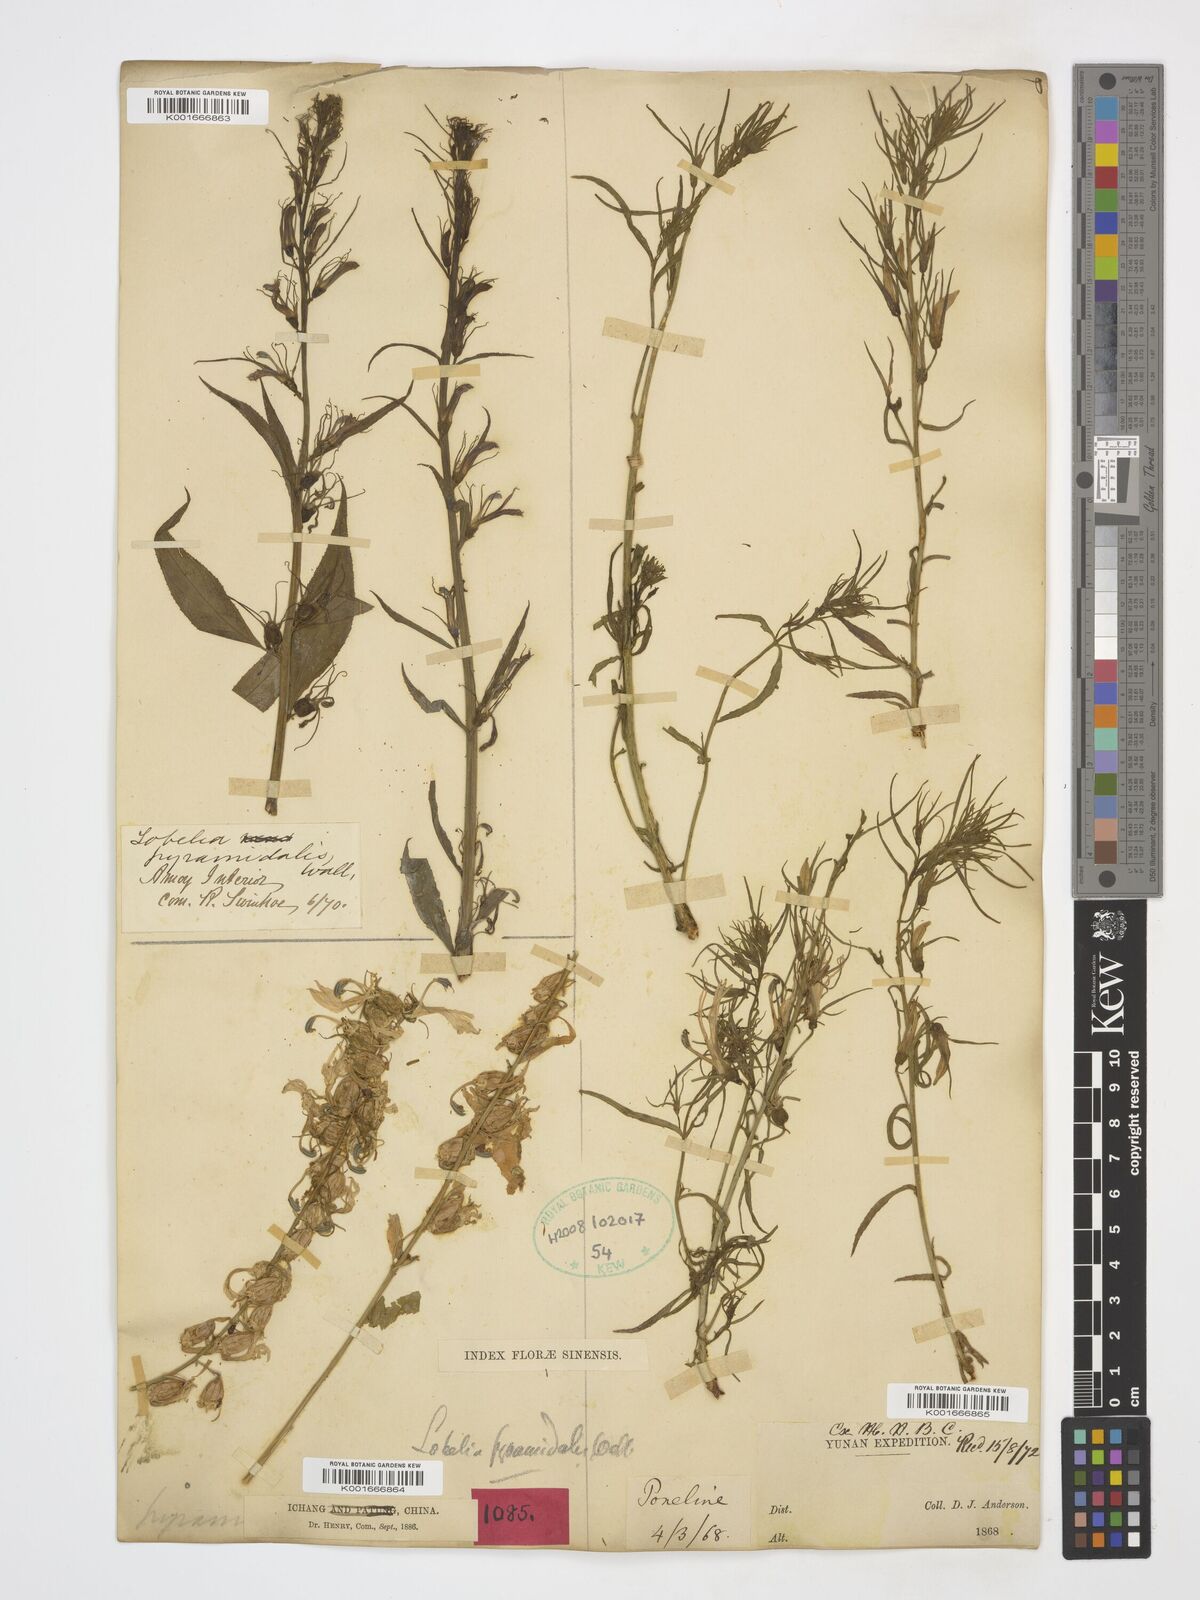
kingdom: Plantae
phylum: Tracheophyta
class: Magnoliopsida
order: Asterales
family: Campanulaceae
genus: Lobelia
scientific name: Lobelia pyramidalis
